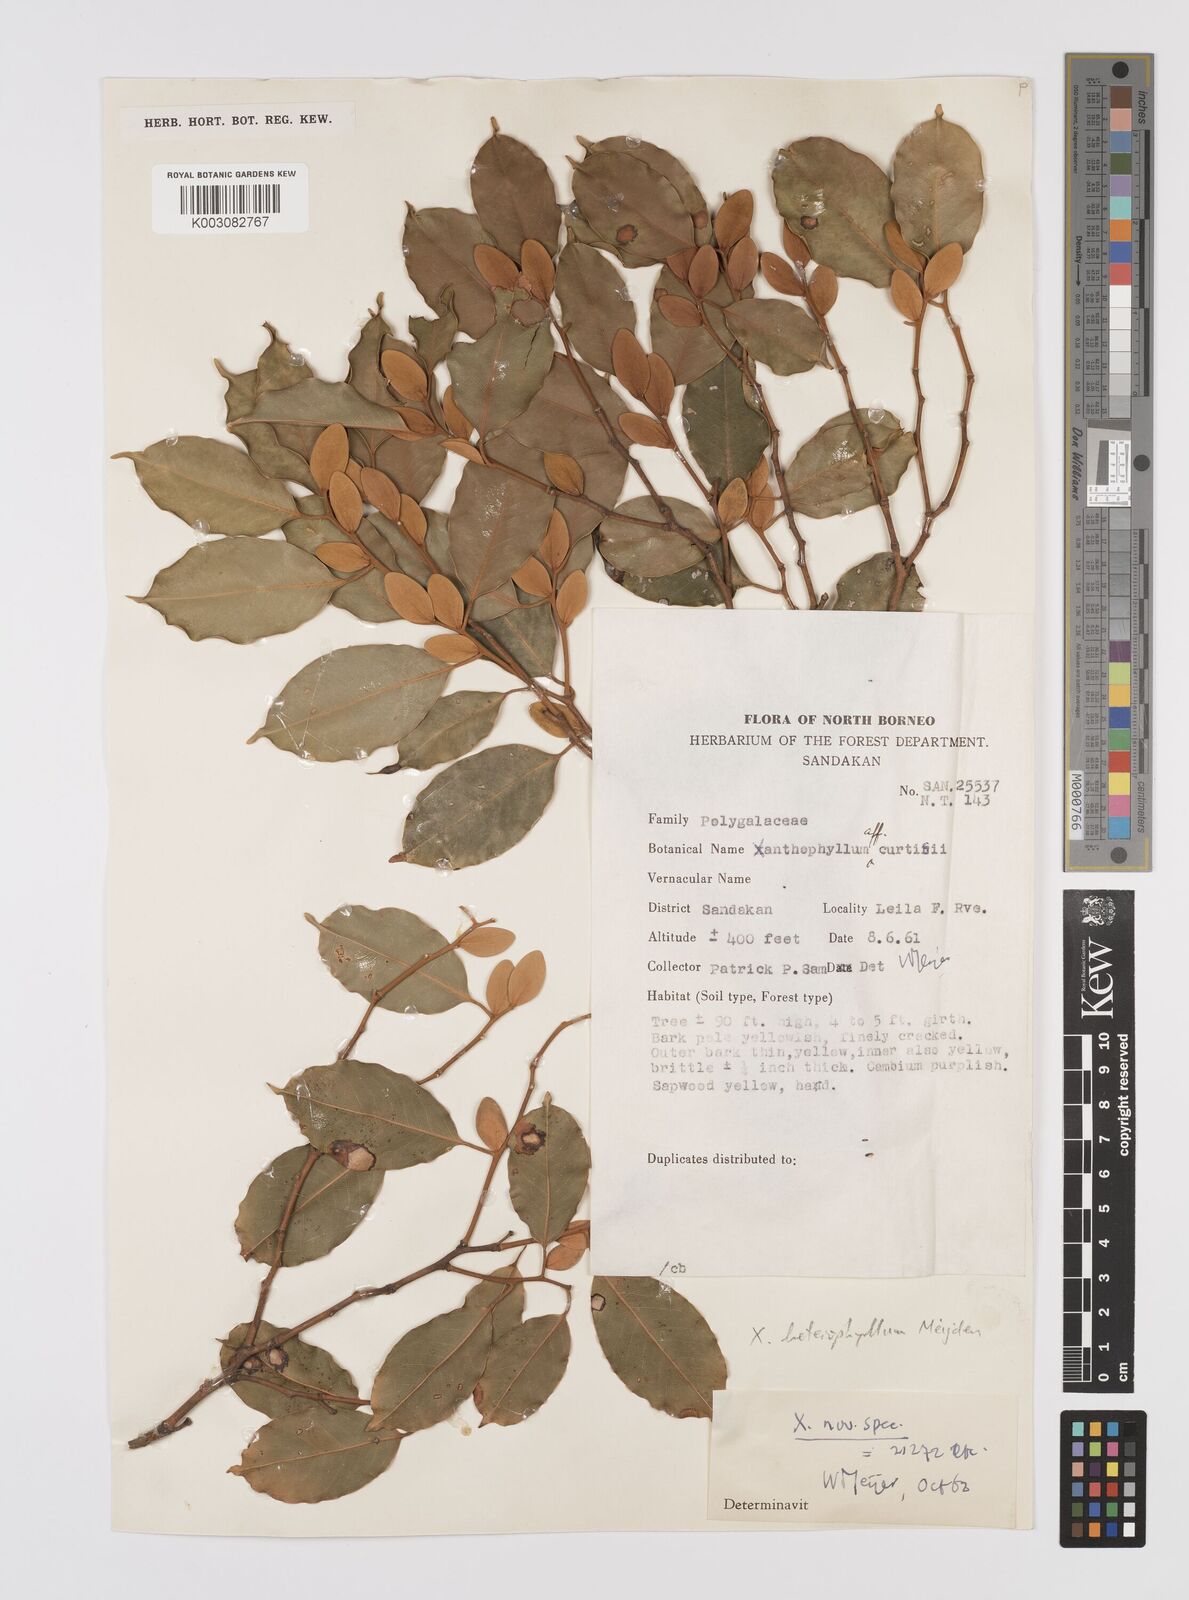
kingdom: Plantae
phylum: Tracheophyta
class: Magnoliopsida
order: Fabales
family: Polygalaceae
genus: Xanthophyllum
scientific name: Xanthophyllum heterophyllum
